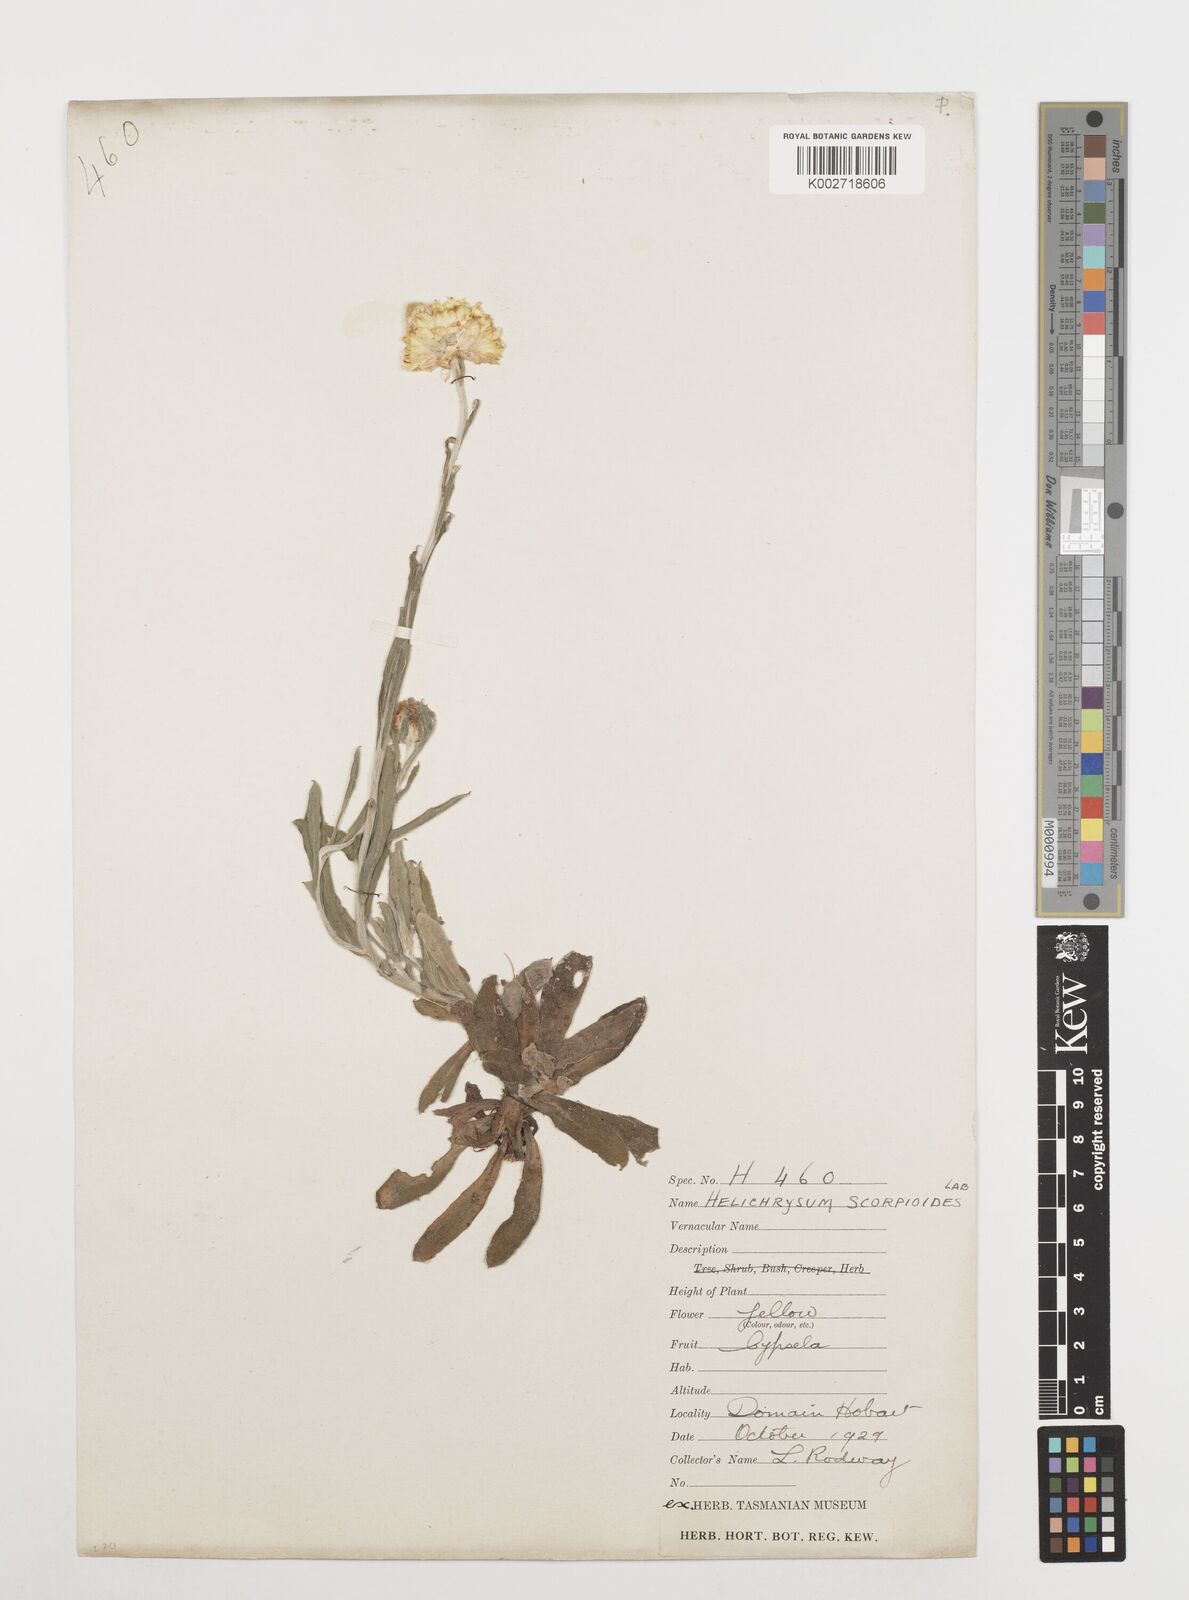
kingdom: Plantae
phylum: Tracheophyta
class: Magnoliopsida
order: Asterales
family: Asteraceae
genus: Coronidium
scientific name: Coronidium scorpioides
